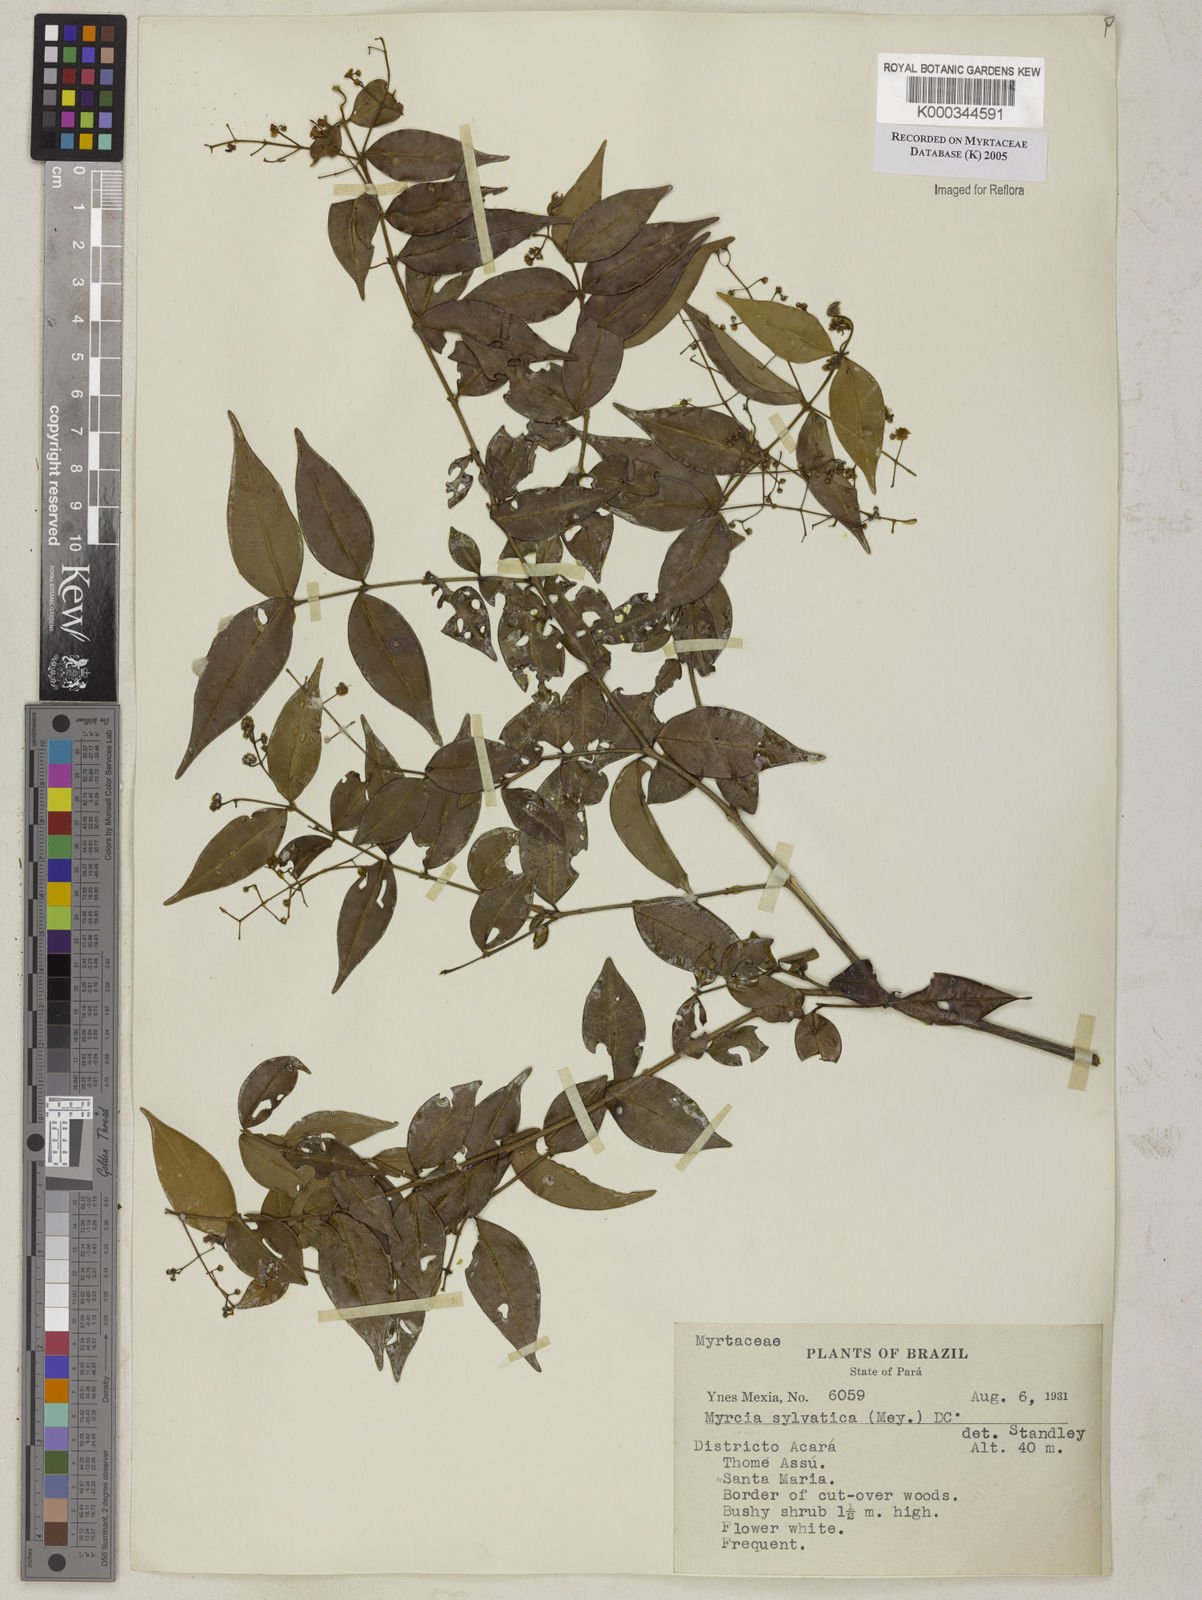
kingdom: Plantae
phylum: Tracheophyta
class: Magnoliopsida
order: Myrtales
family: Myrtaceae
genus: Myrcia
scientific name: Myrcia sylvatica
